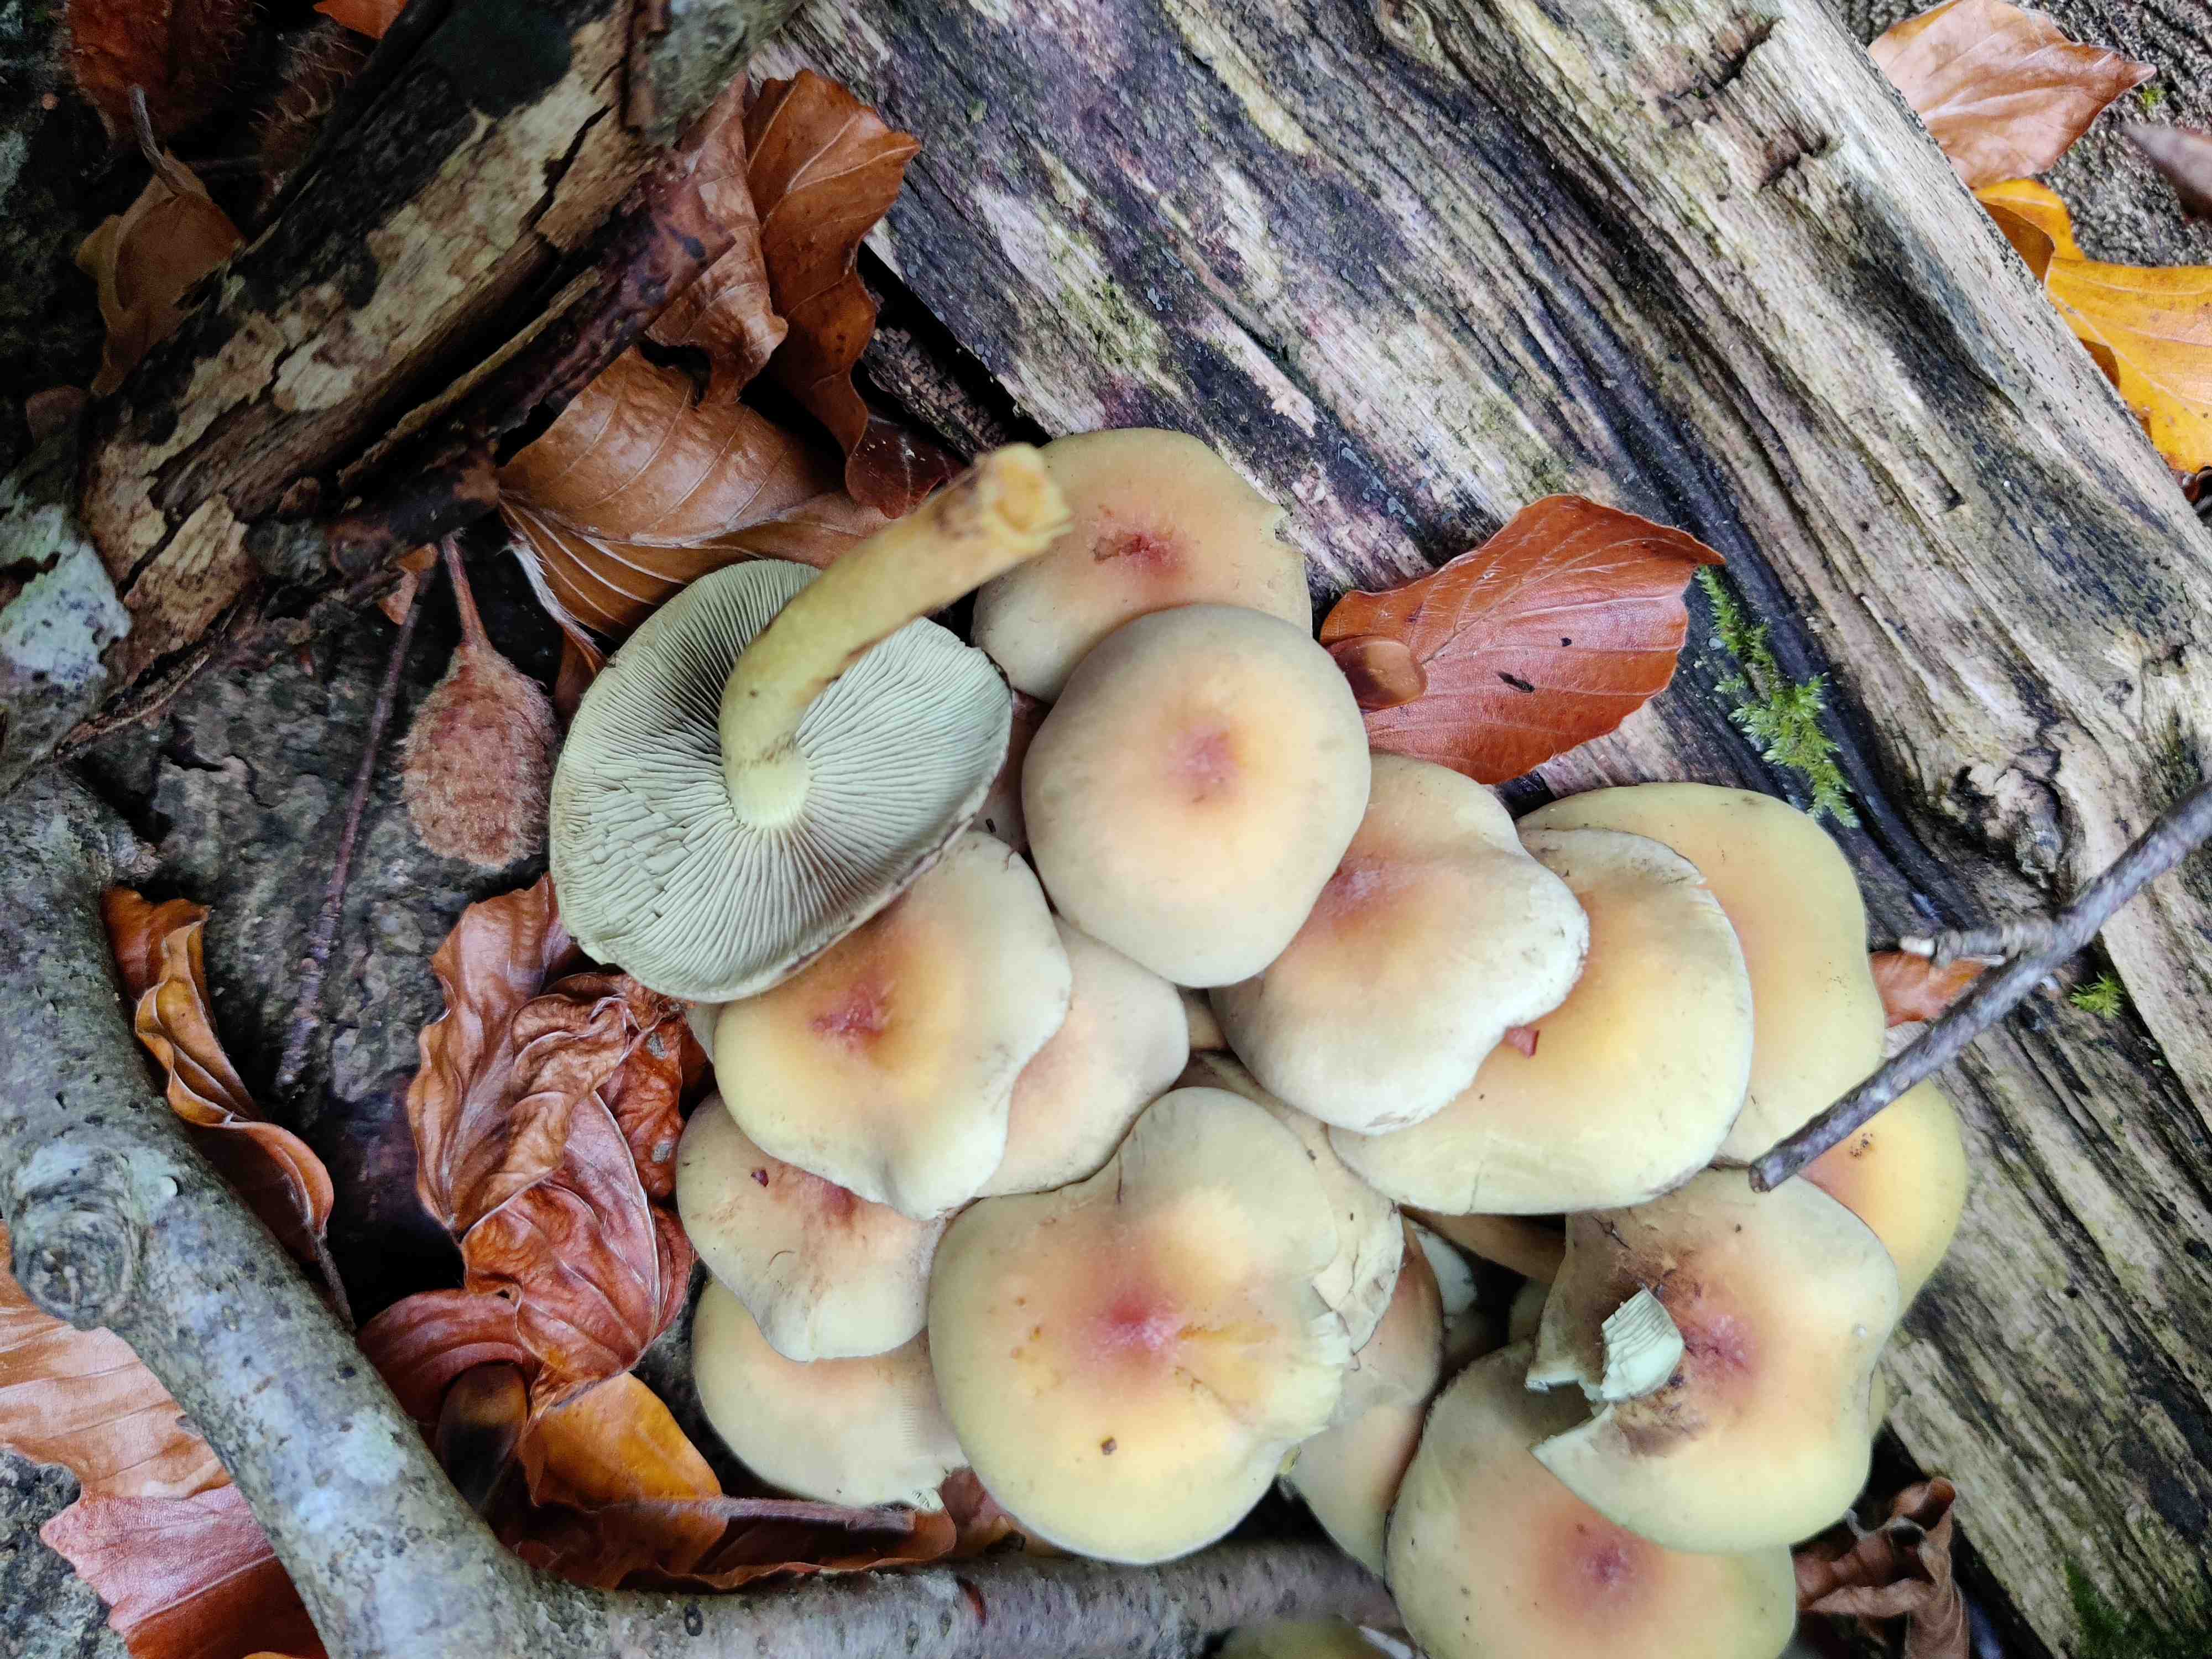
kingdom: Fungi
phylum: Basidiomycota
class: Agaricomycetes
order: Agaricales
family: Strophariaceae
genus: Hypholoma
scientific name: Hypholoma fasciculare
